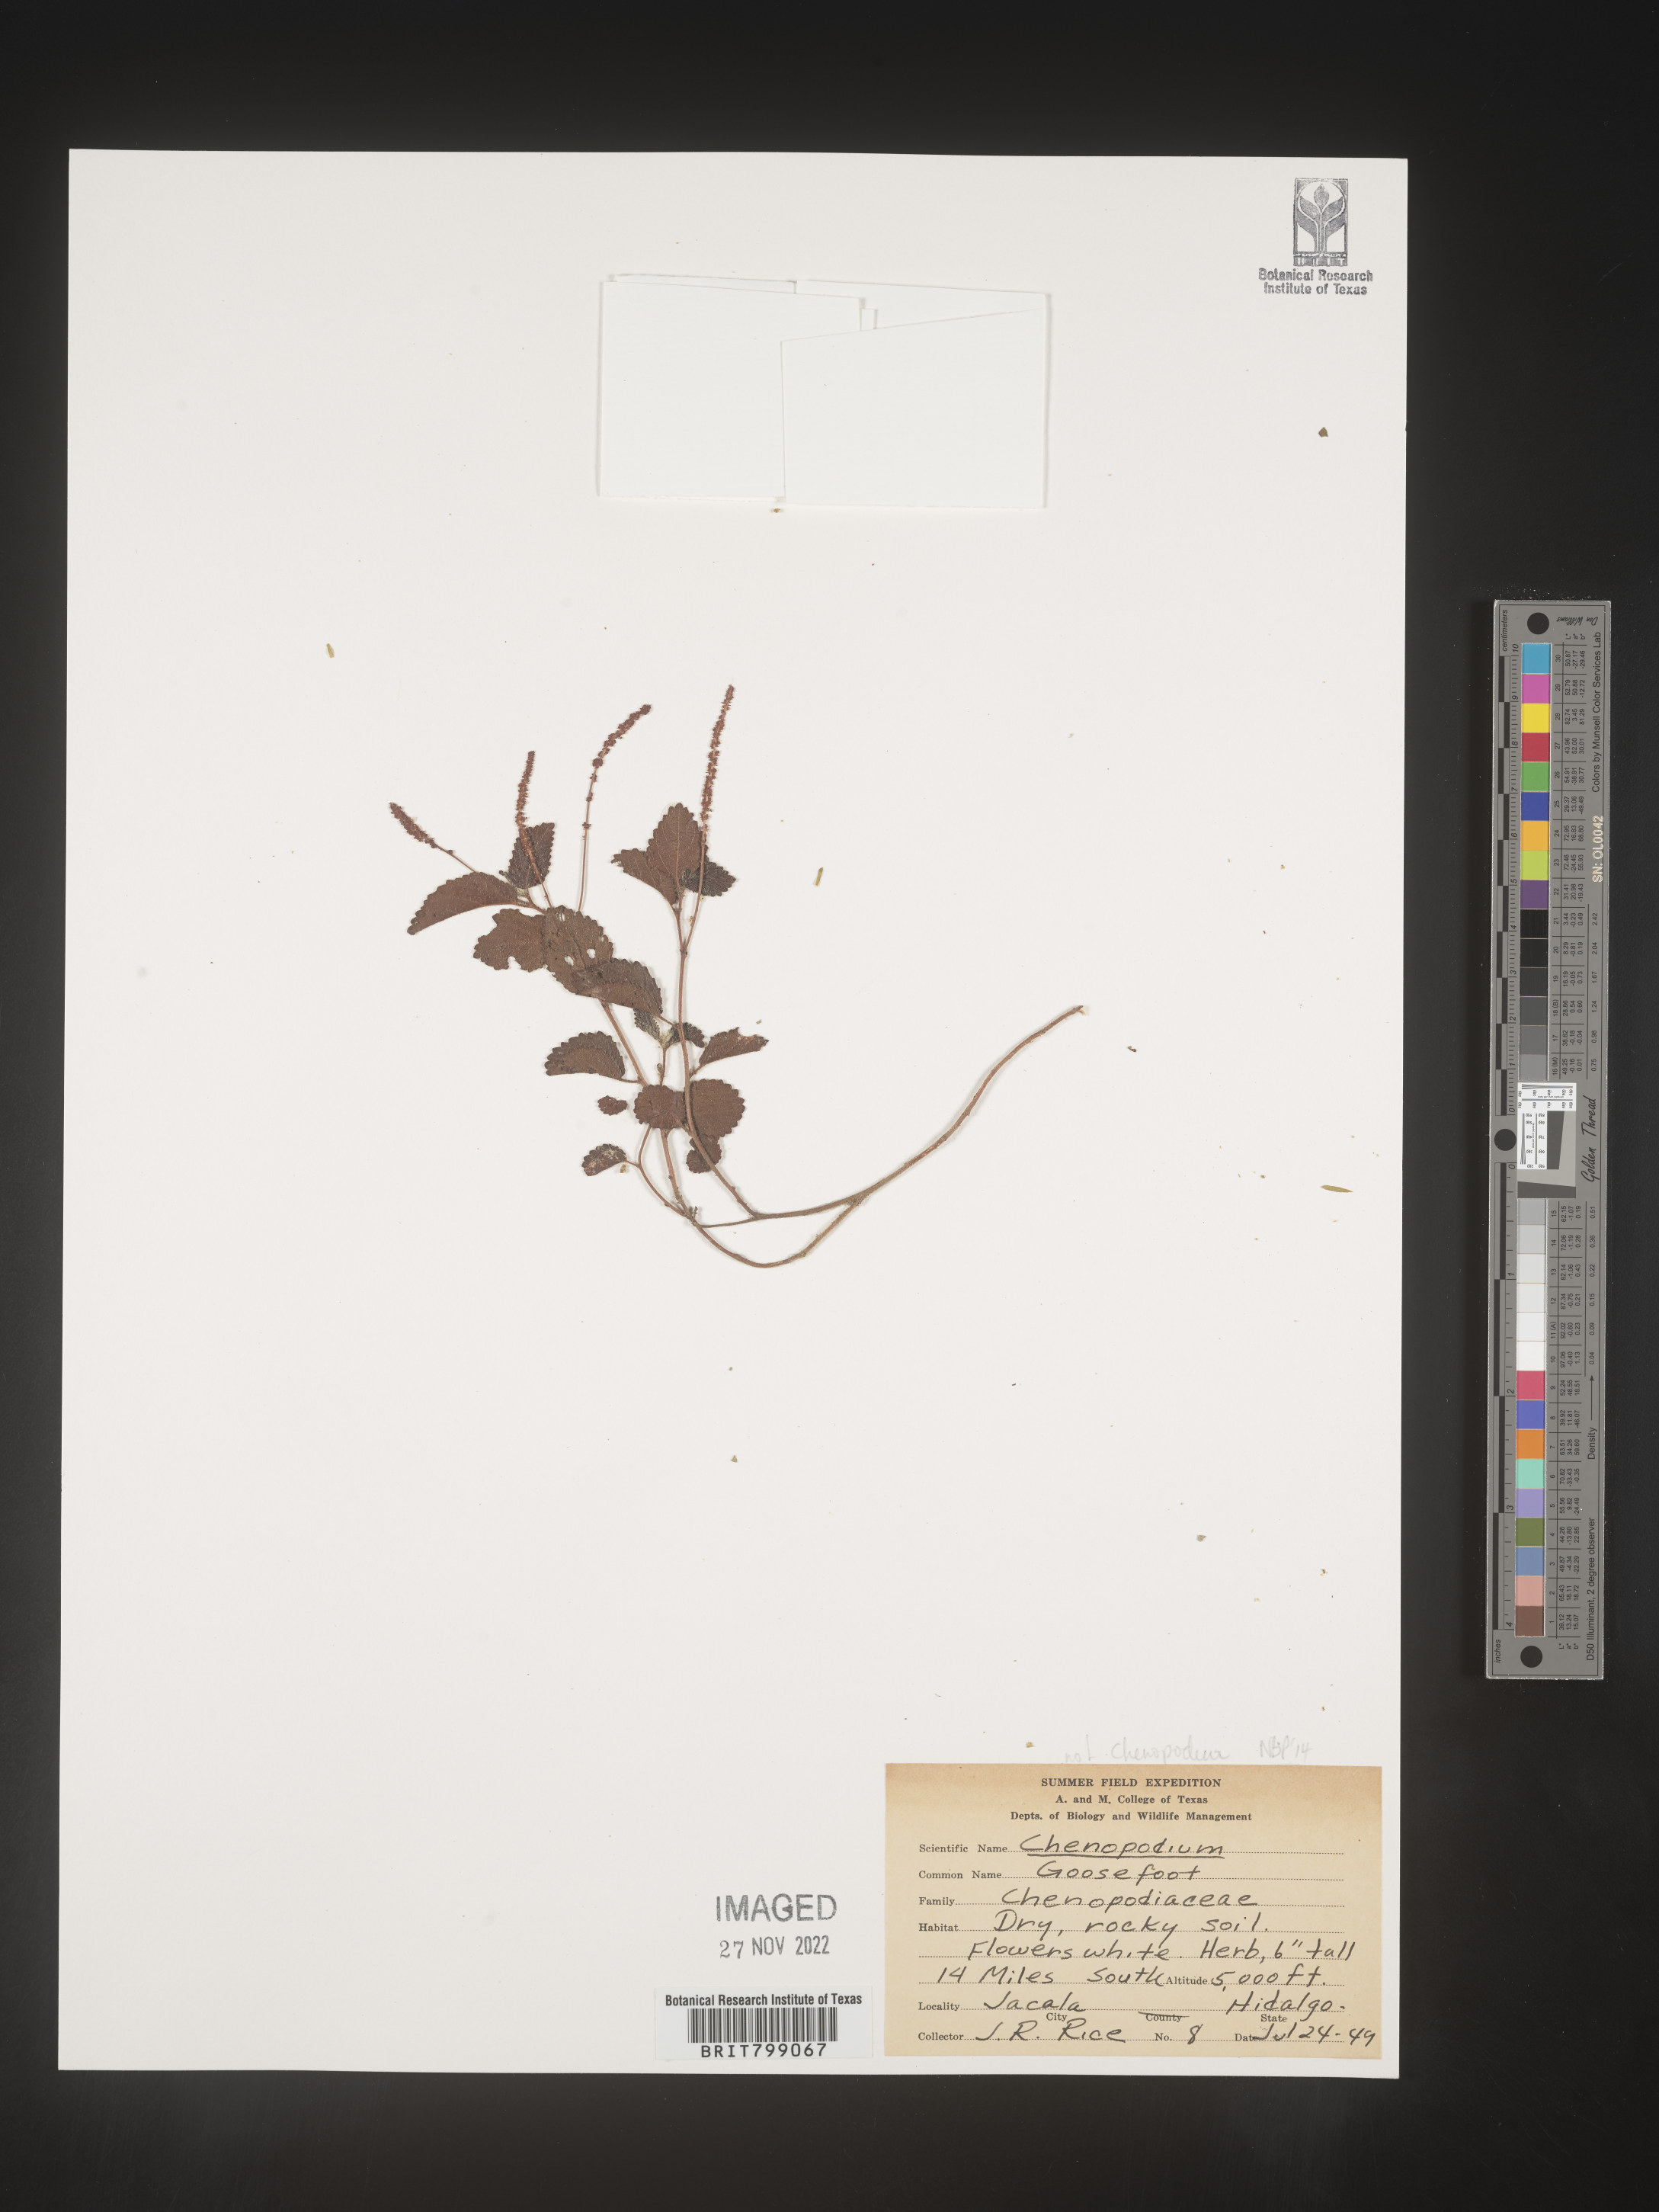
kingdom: Plantae
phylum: Tracheophyta
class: Magnoliopsida
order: Caryophyllales
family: Amaranthaceae
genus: Chenopodium
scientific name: Chenopodium
